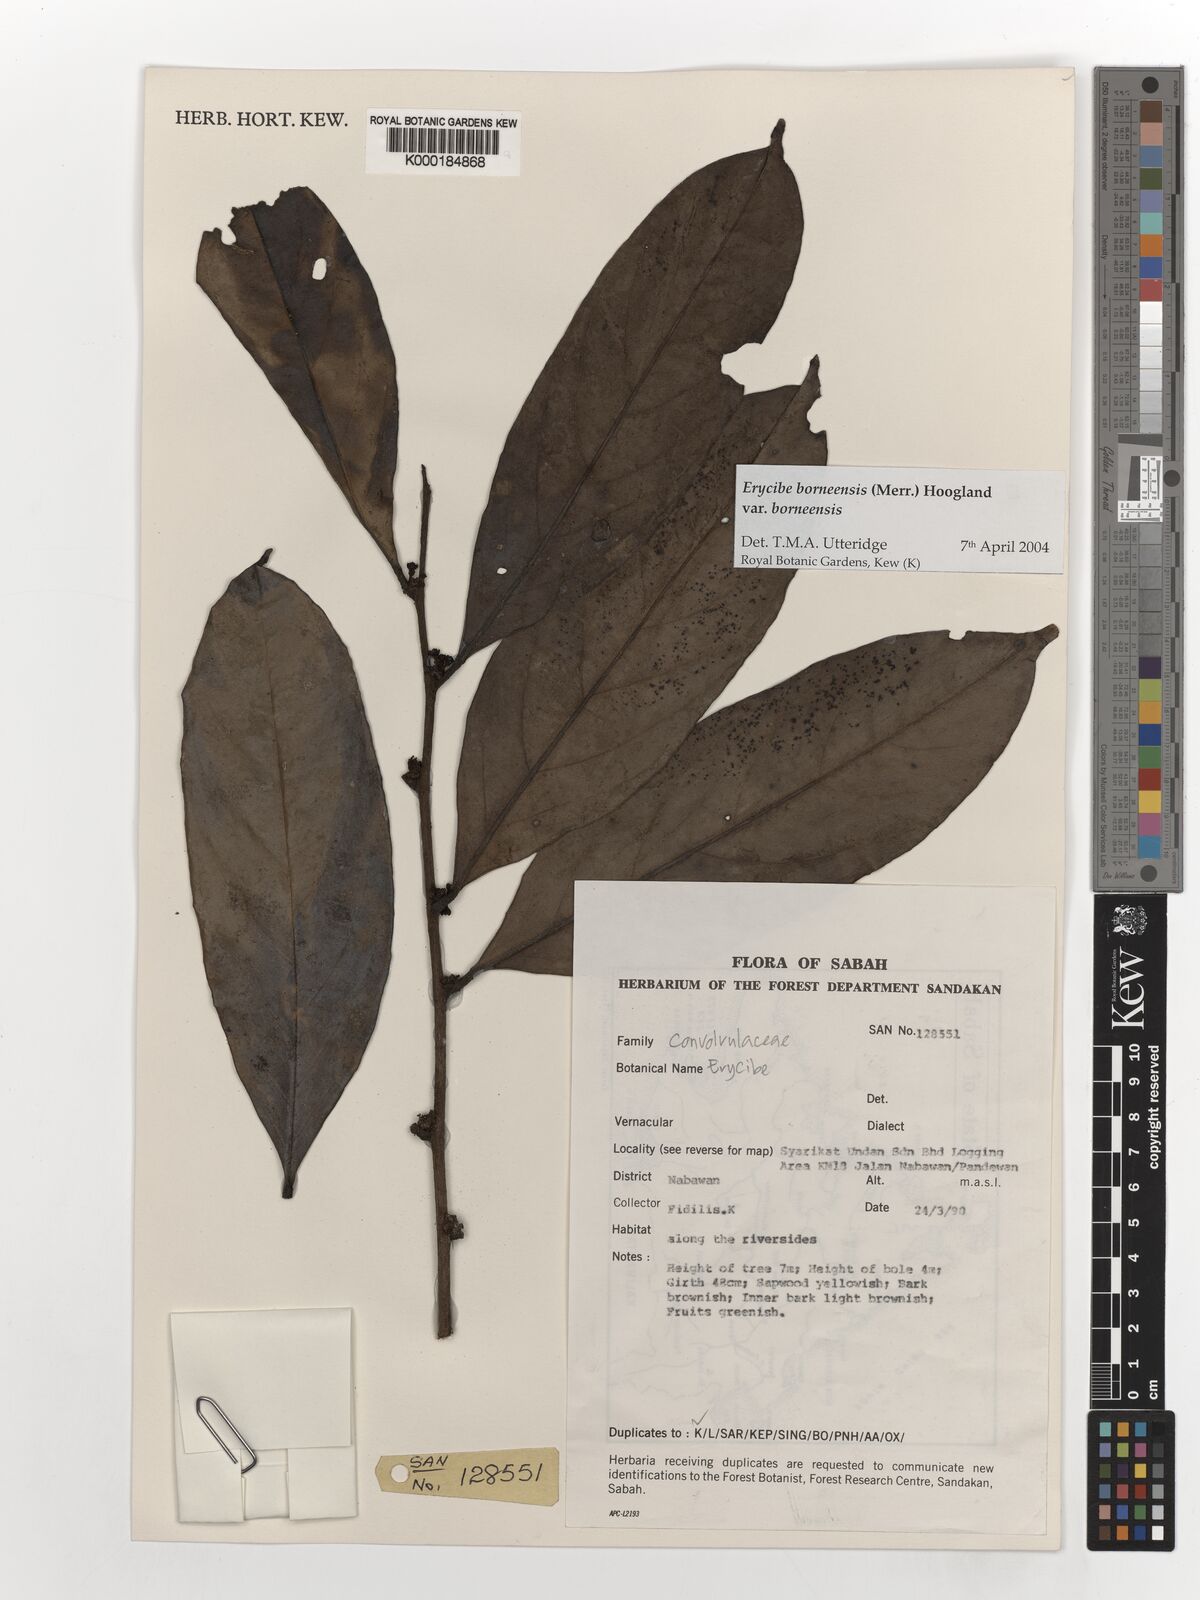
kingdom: Plantae
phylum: Tracheophyta
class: Magnoliopsida
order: Solanales
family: Convolvulaceae
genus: Erycibe
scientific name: Erycibe borneensis
